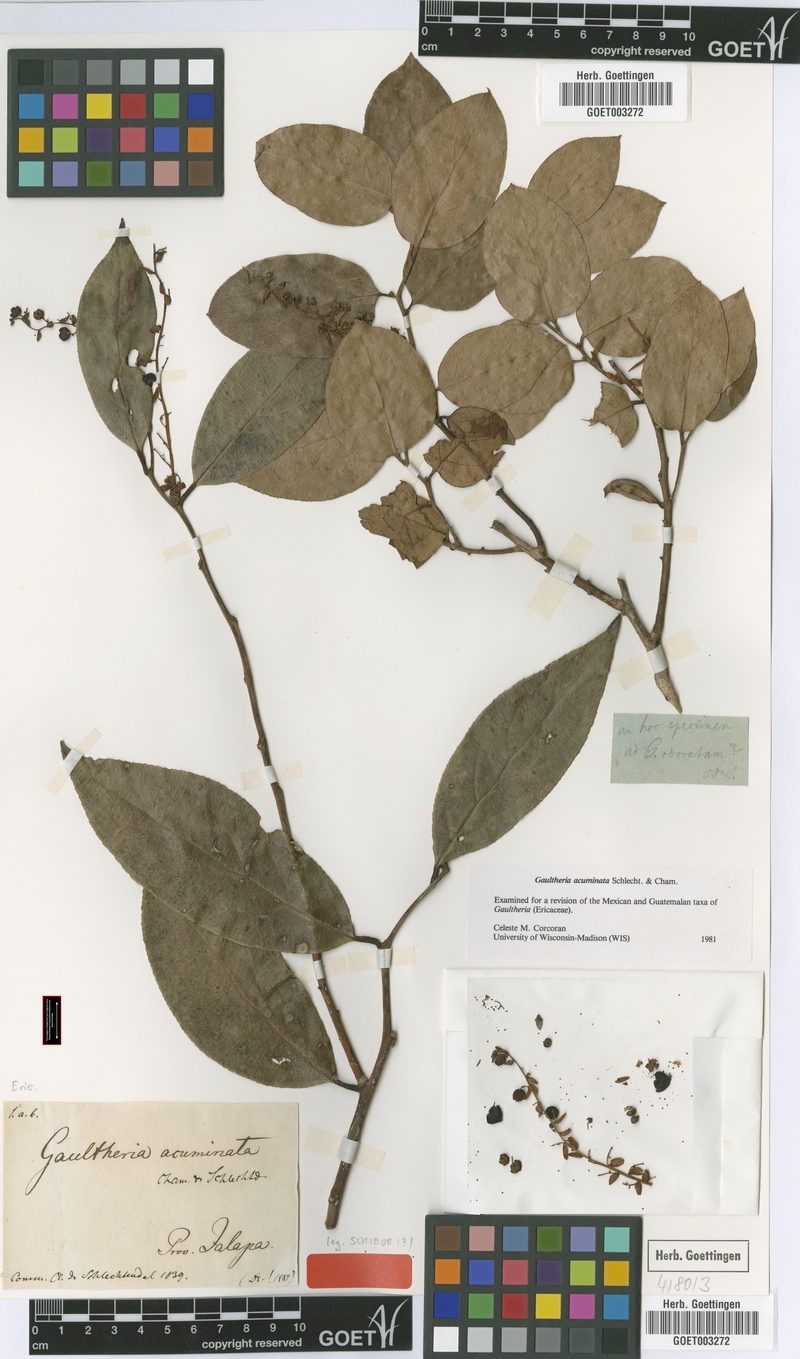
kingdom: Plantae
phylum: Tracheophyta
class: Magnoliopsida
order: Ericales
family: Ericaceae
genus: Gaultheria
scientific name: Gaultheria acuminata
